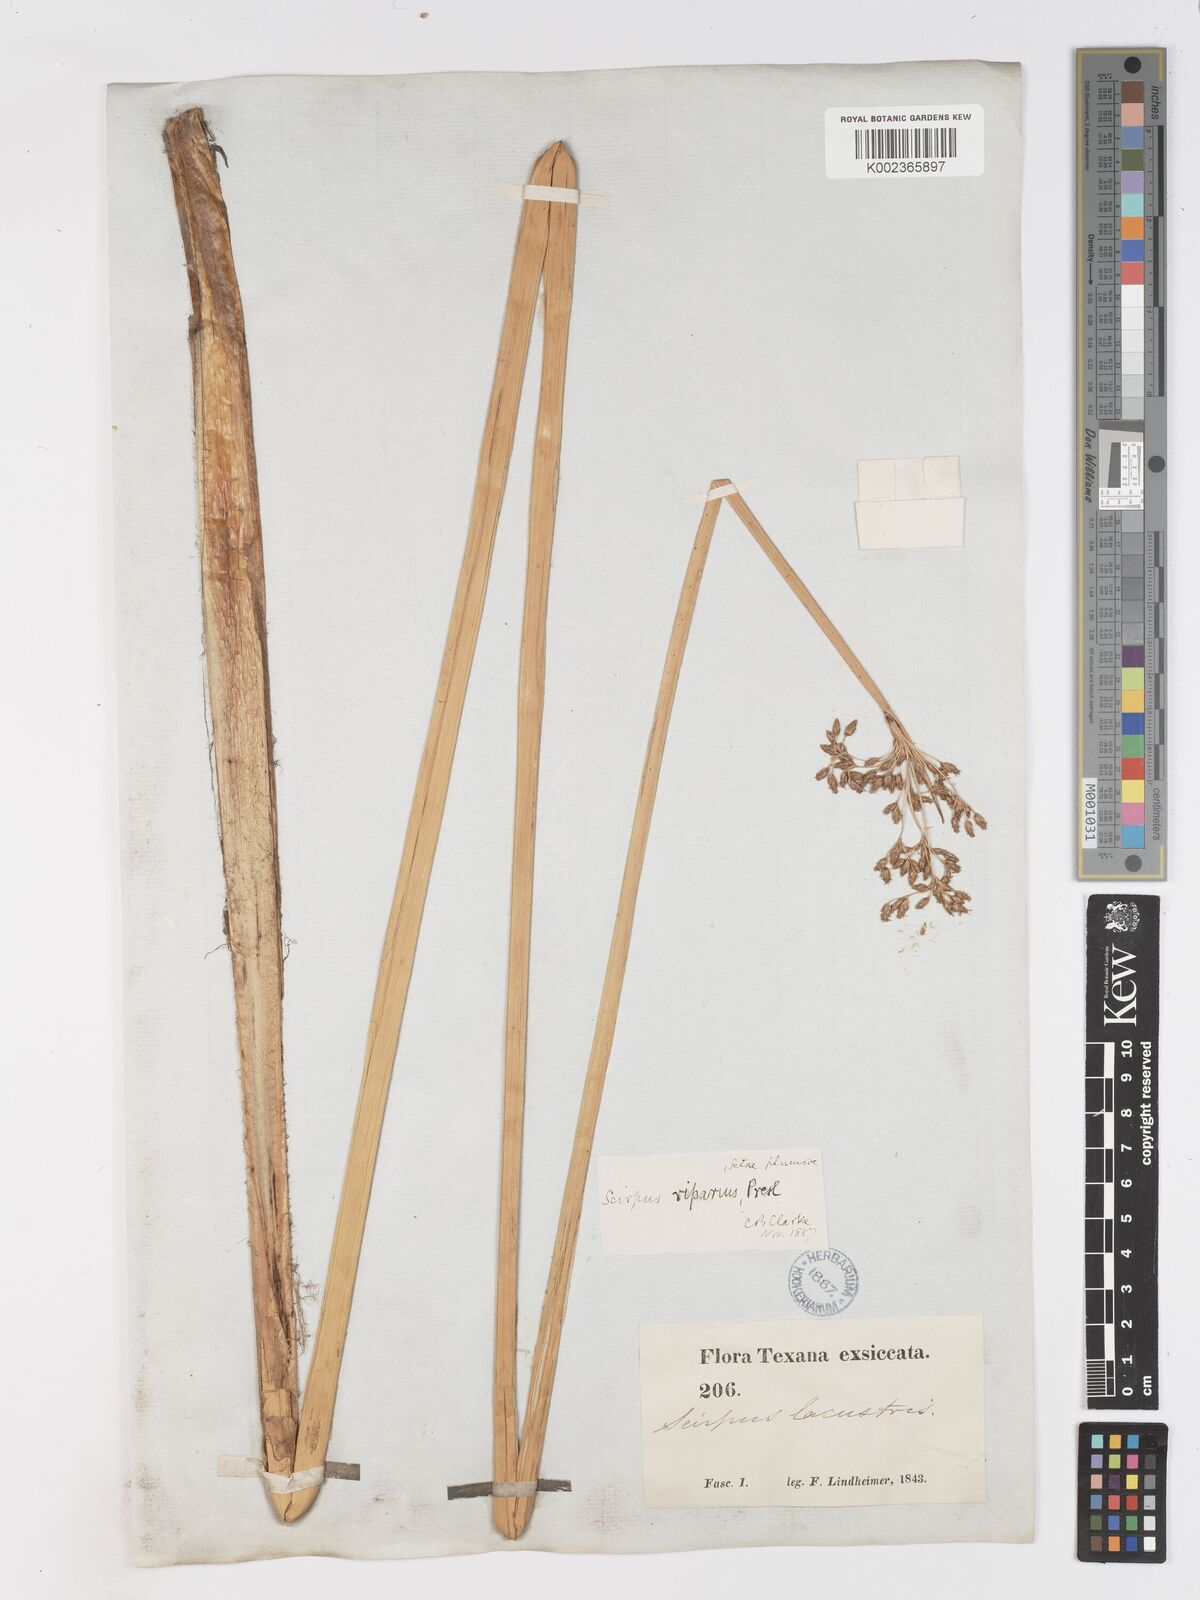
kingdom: Plantae
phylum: Tracheophyta
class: Liliopsida
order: Poales
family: Cyperaceae
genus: Schoenoplectus
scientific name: Schoenoplectus californicus
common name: California bulrush
